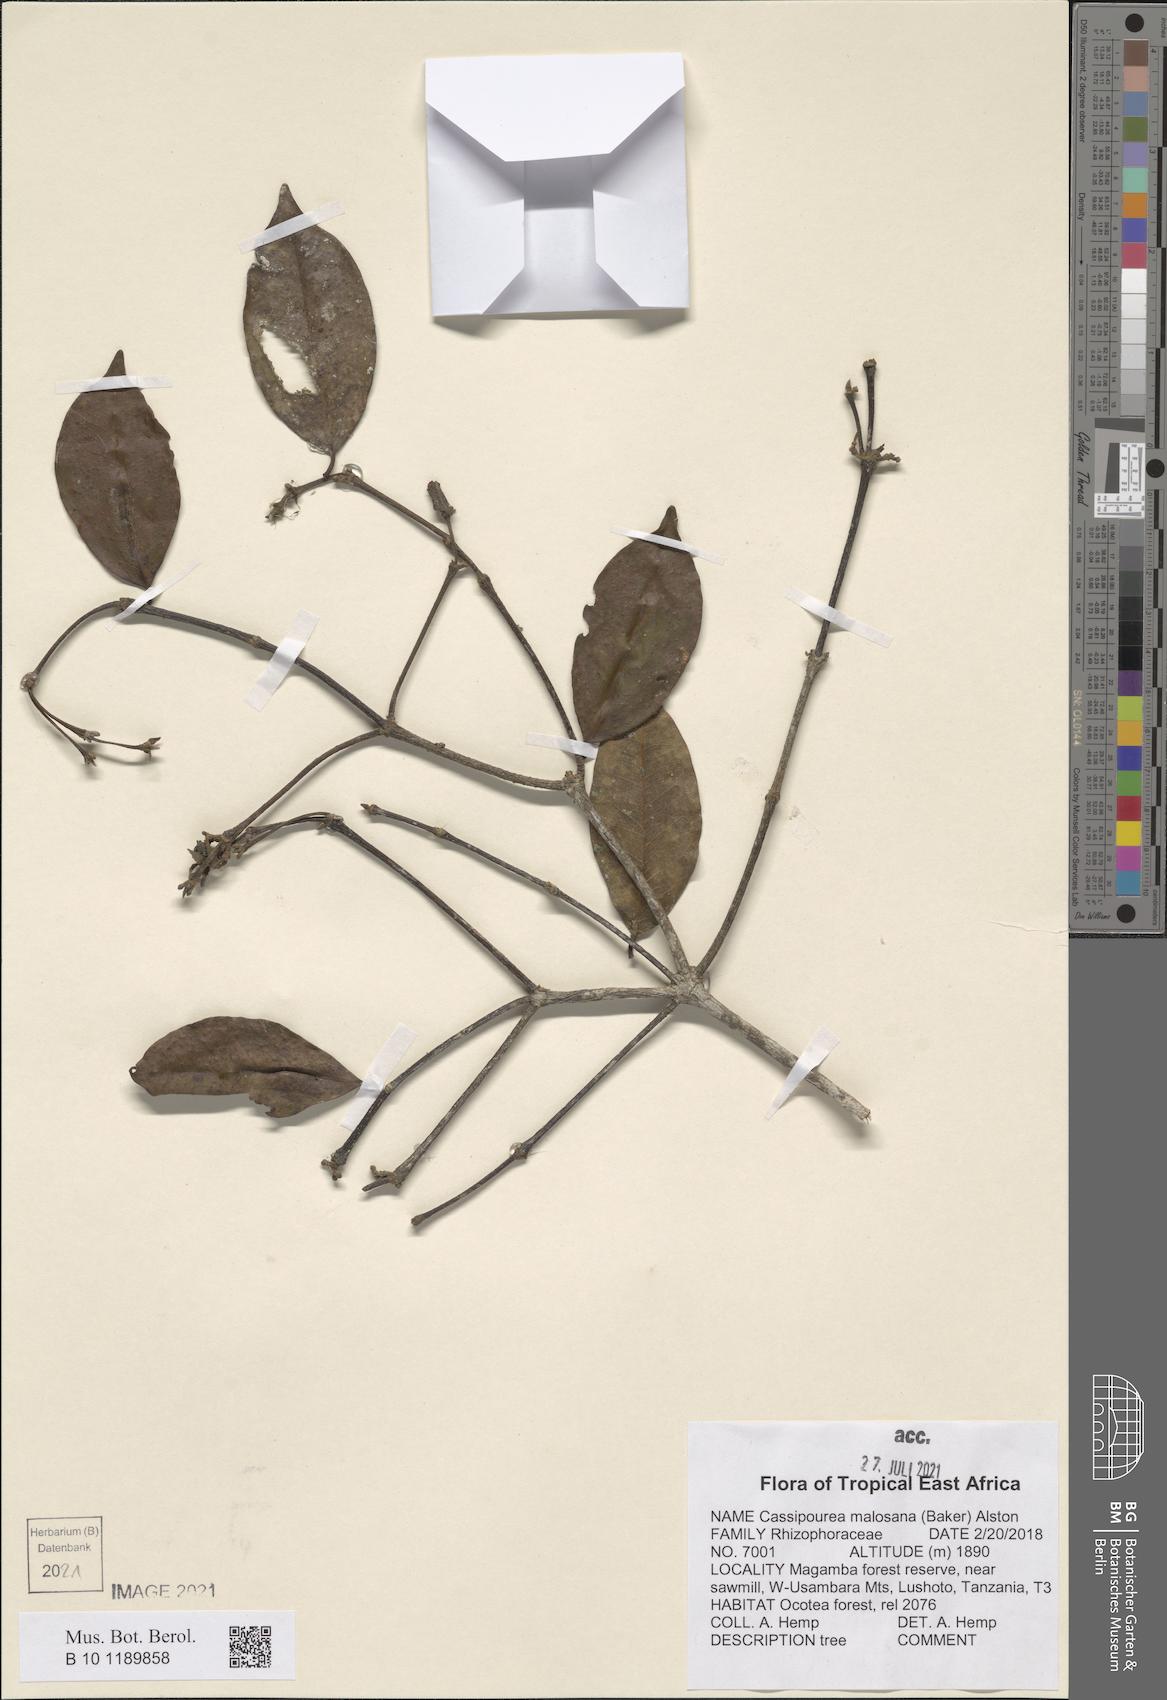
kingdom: Plantae
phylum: Tracheophyta
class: Magnoliopsida
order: Malpighiales
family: Rhizophoraceae
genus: Cassipourea
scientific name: Cassipourea malosana
